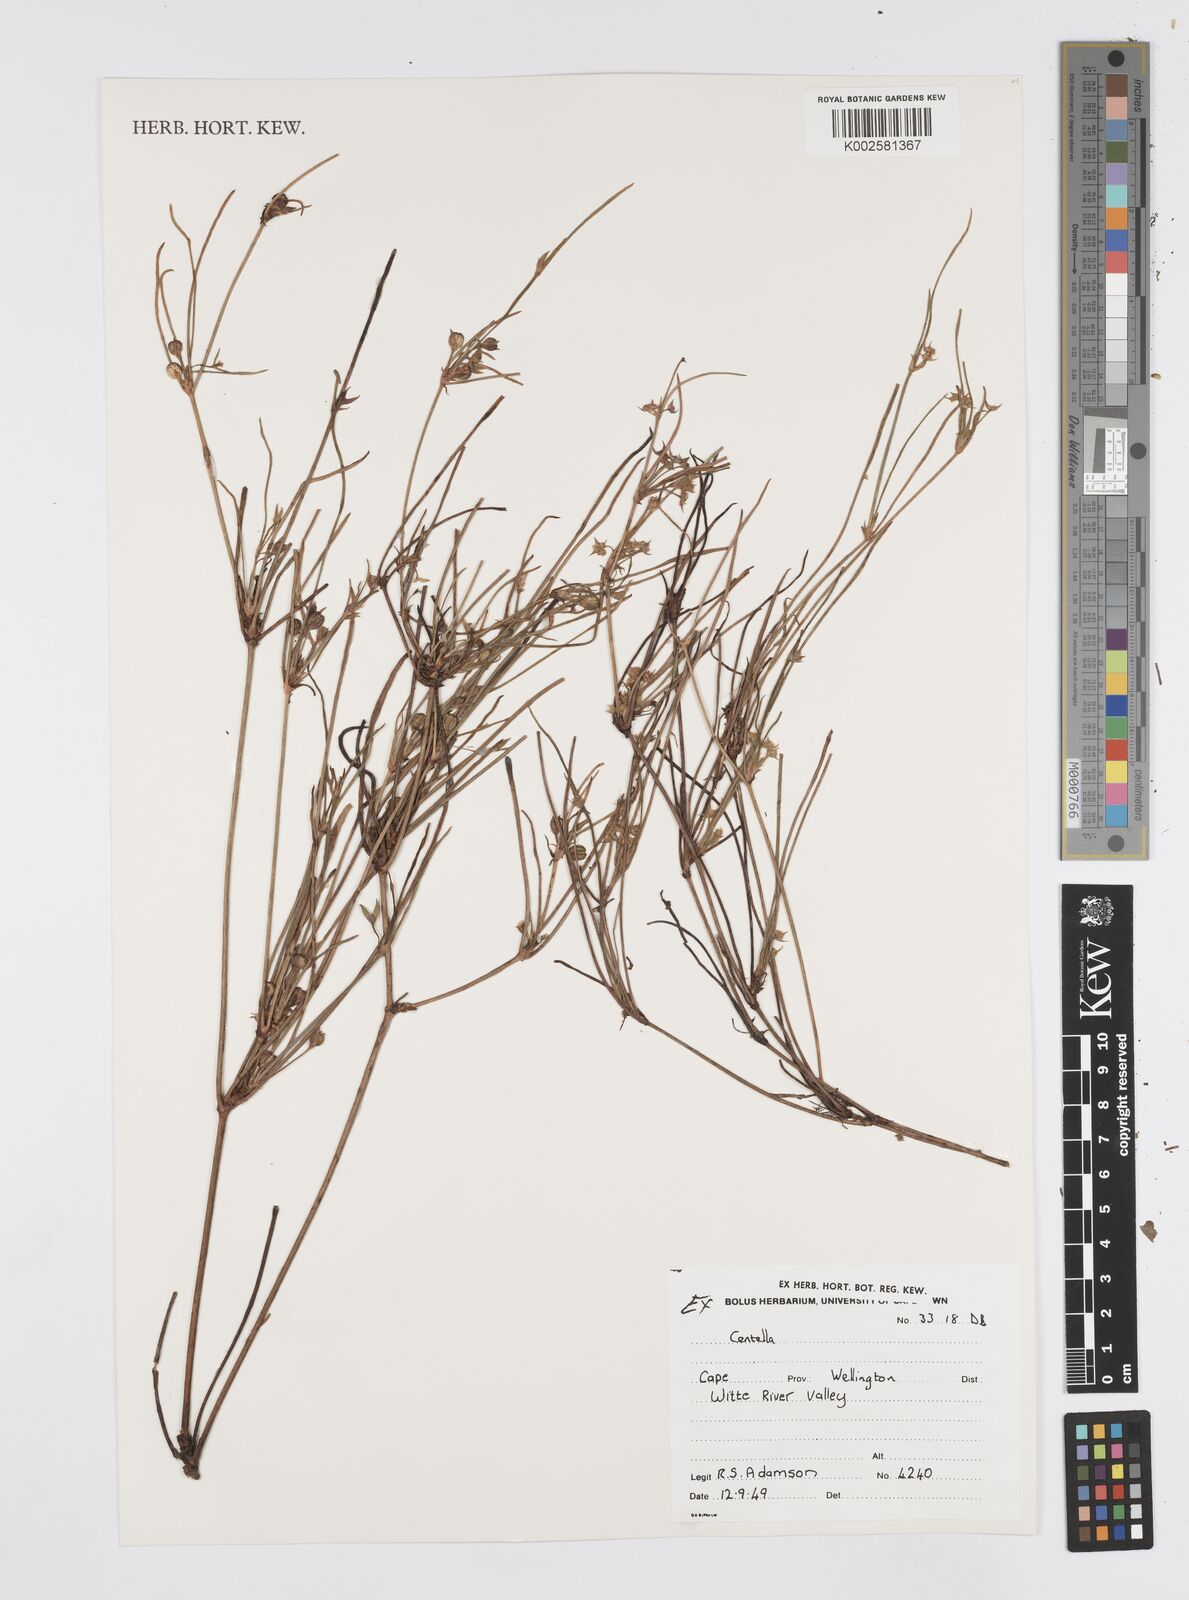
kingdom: Plantae
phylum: Tracheophyta
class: Magnoliopsida
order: Apiales
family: Apiaceae
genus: Centella
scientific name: Centella
